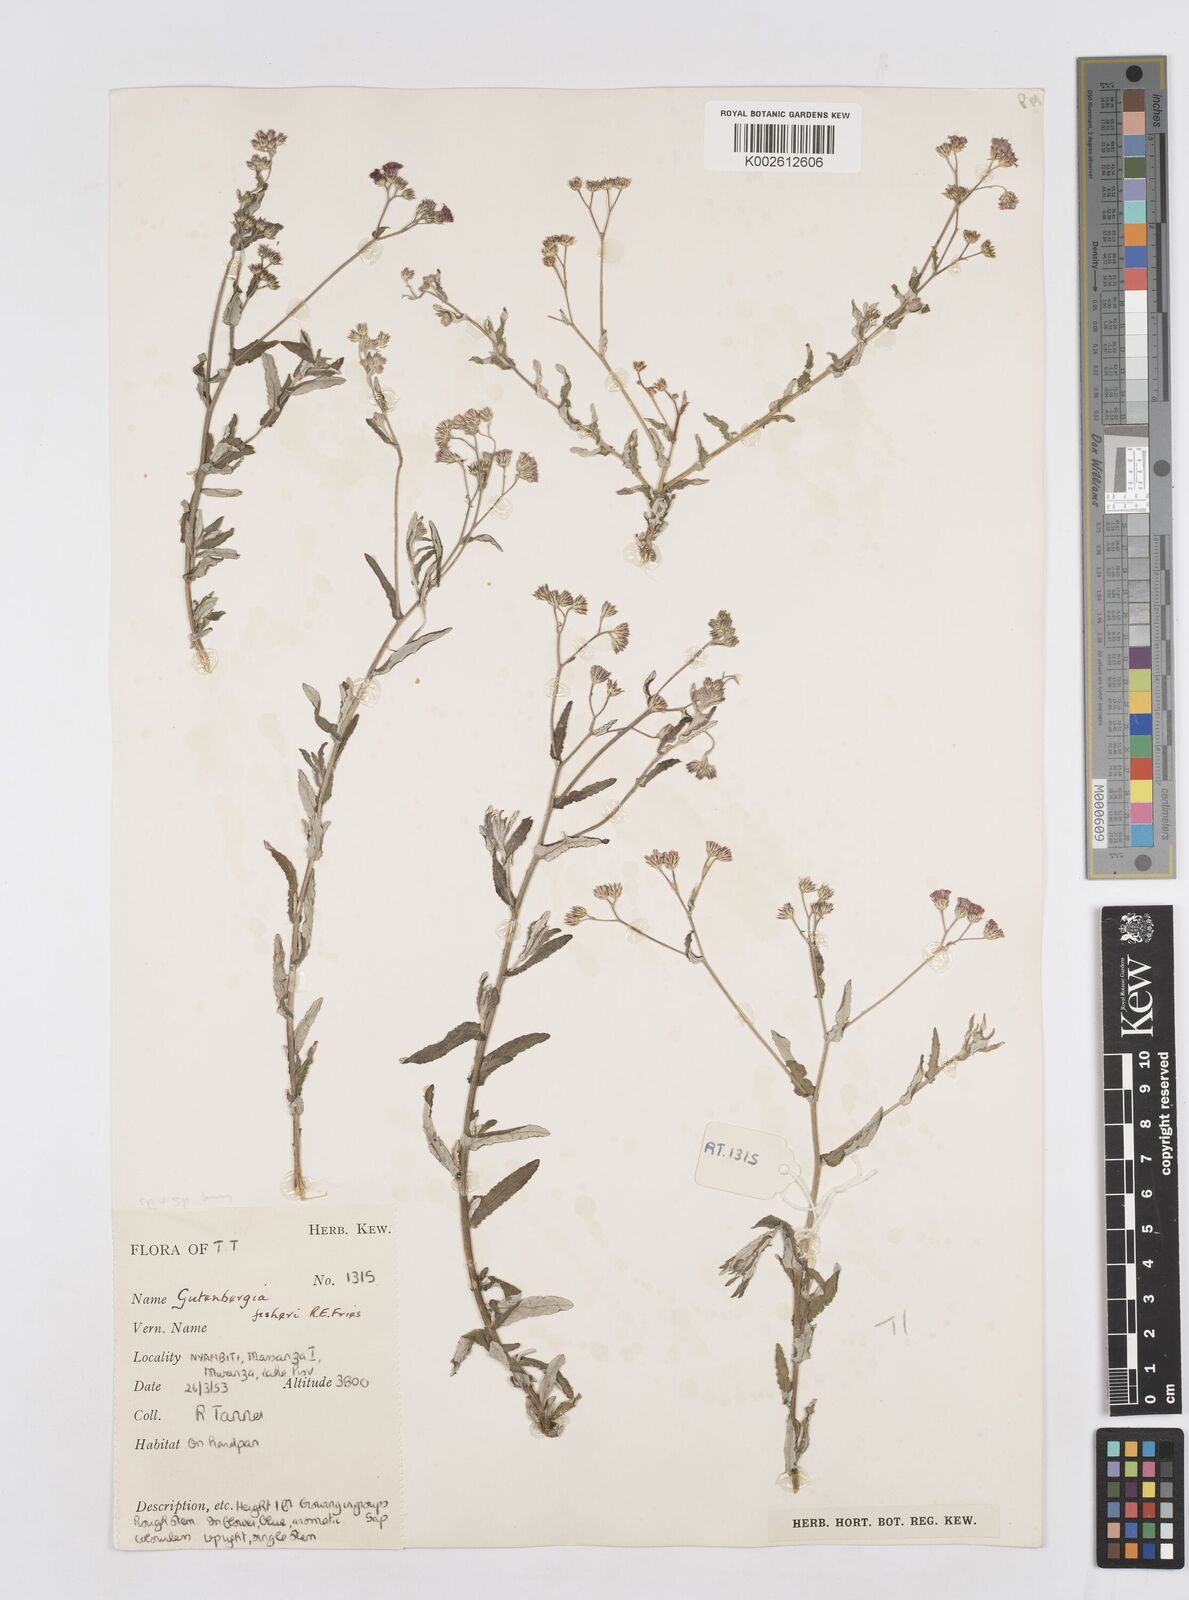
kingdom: Plantae
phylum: Tracheophyta
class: Magnoliopsida
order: Asterales
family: Asteraceae
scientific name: Asteraceae
